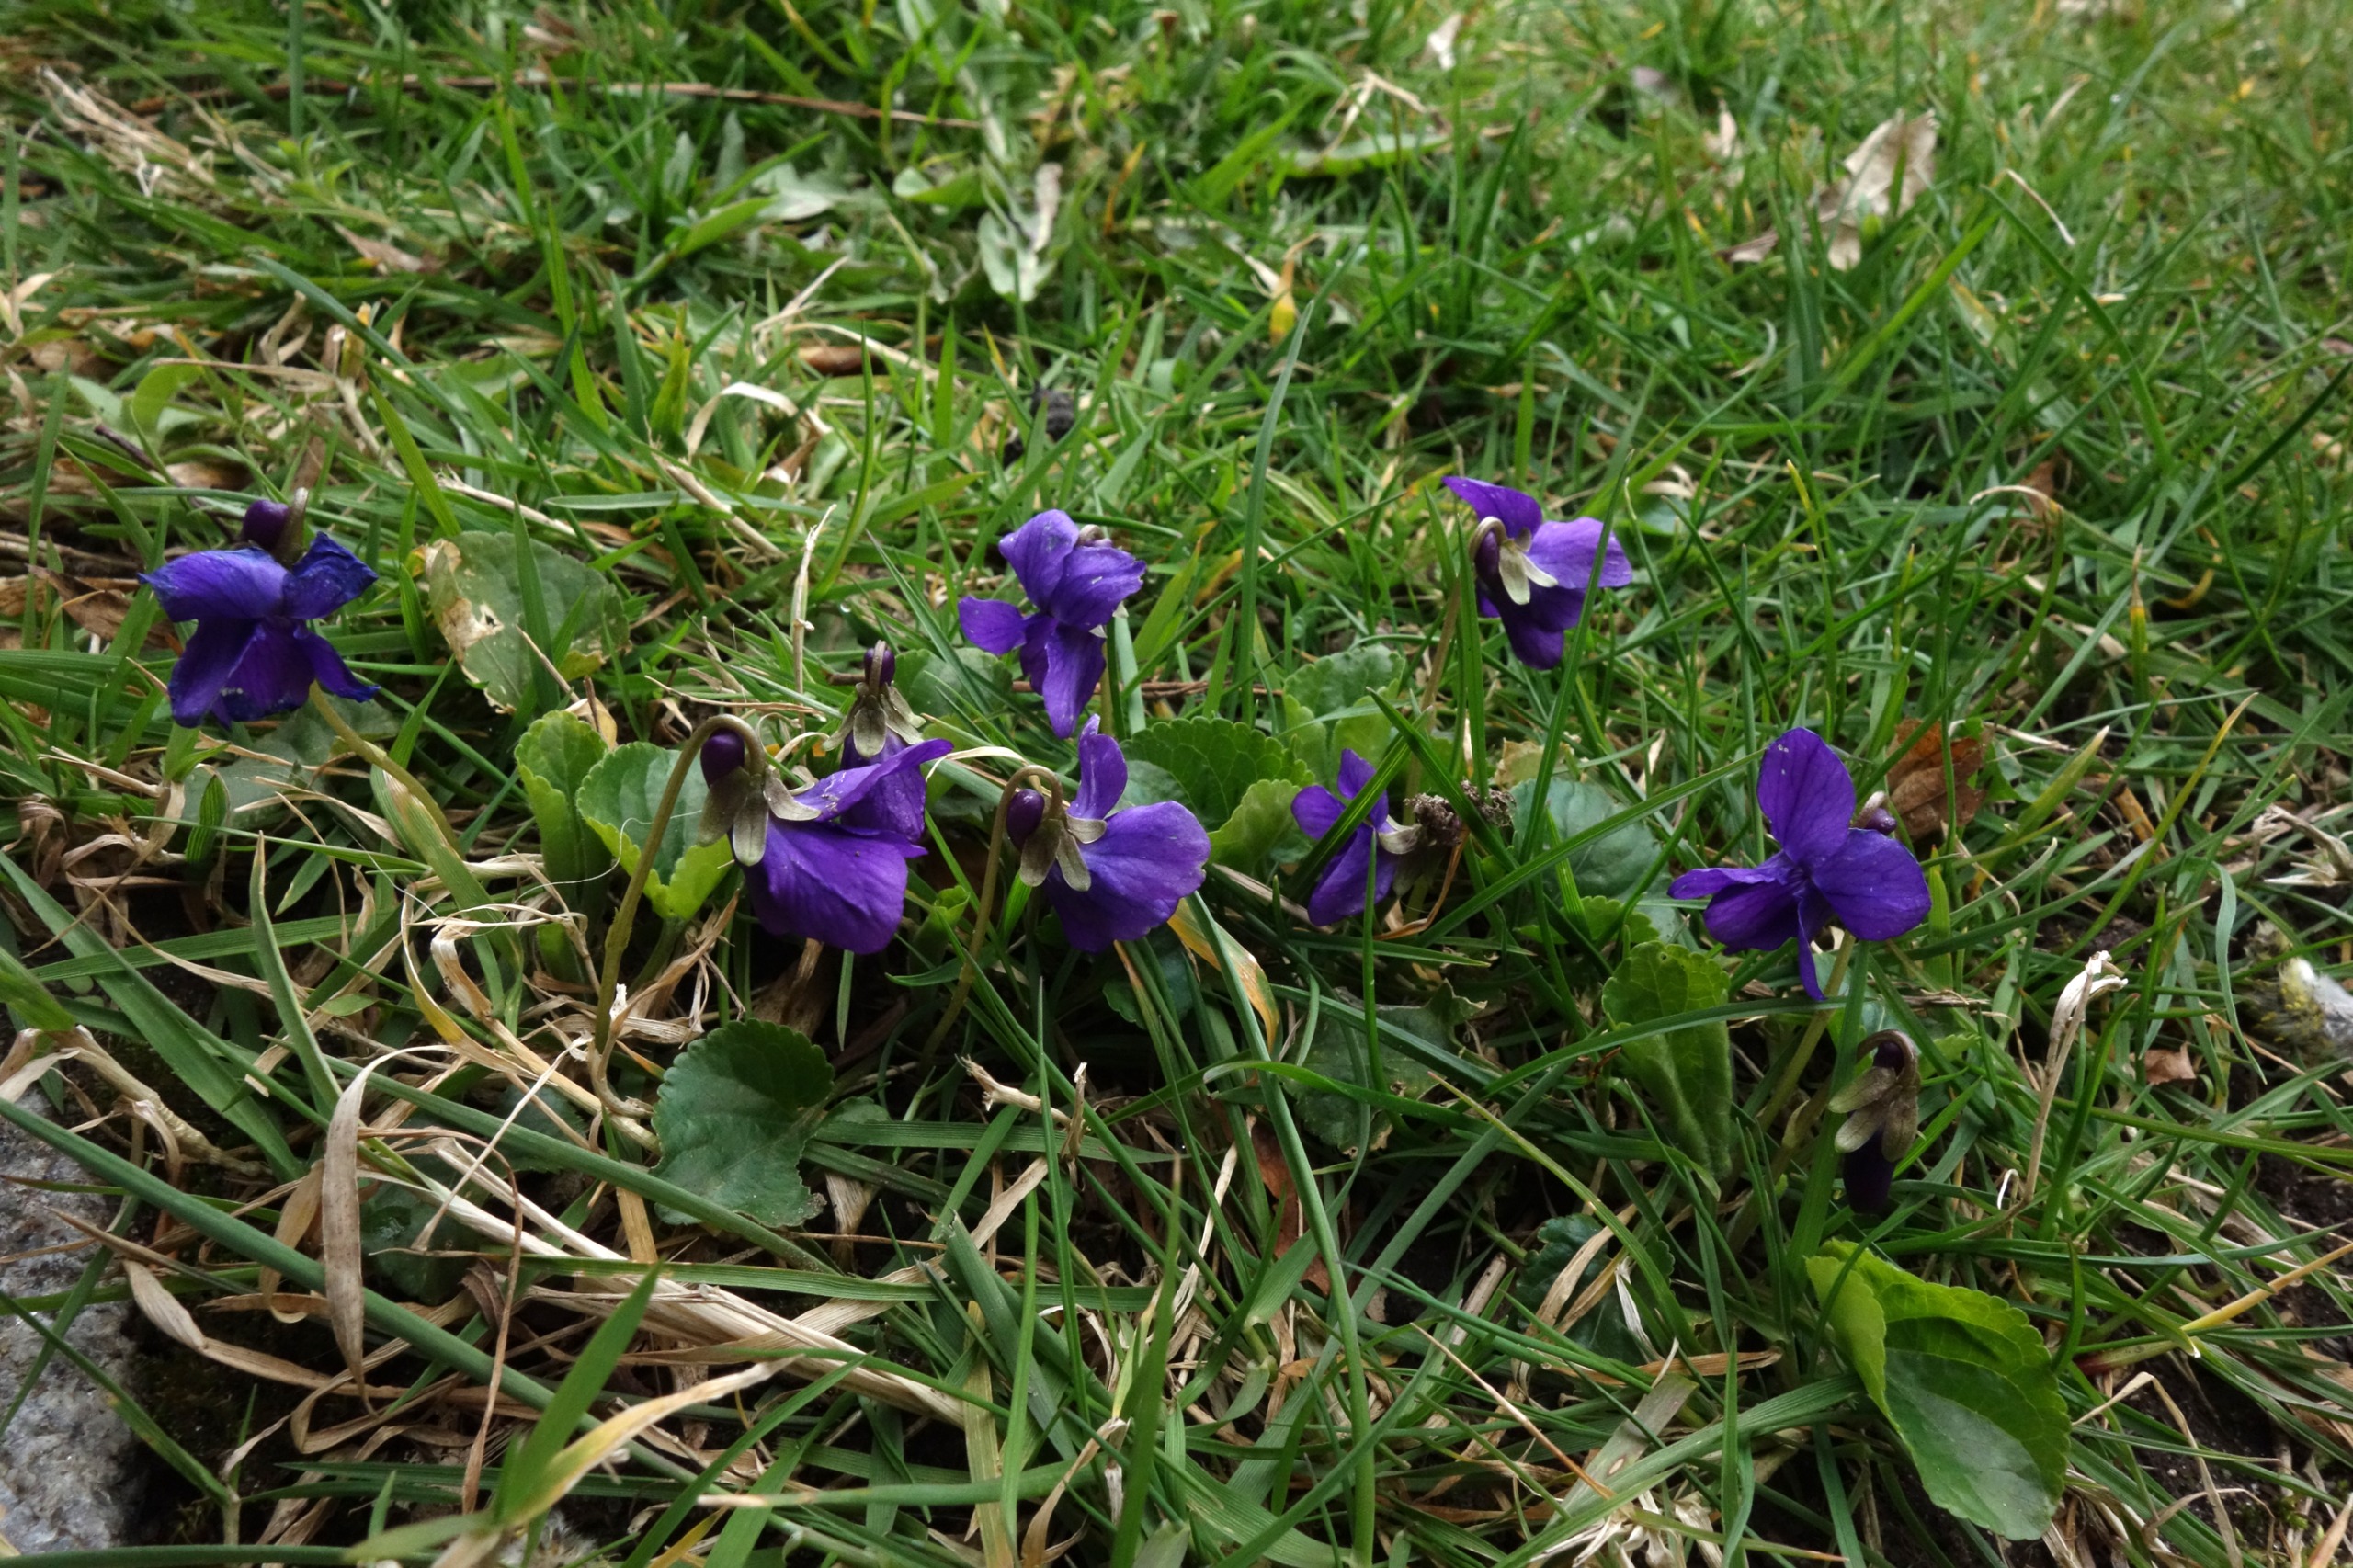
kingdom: Plantae
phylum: Tracheophyta
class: Magnoliopsida
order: Malpighiales
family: Violaceae
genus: Viola
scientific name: Viola odorata
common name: Marts-viol
